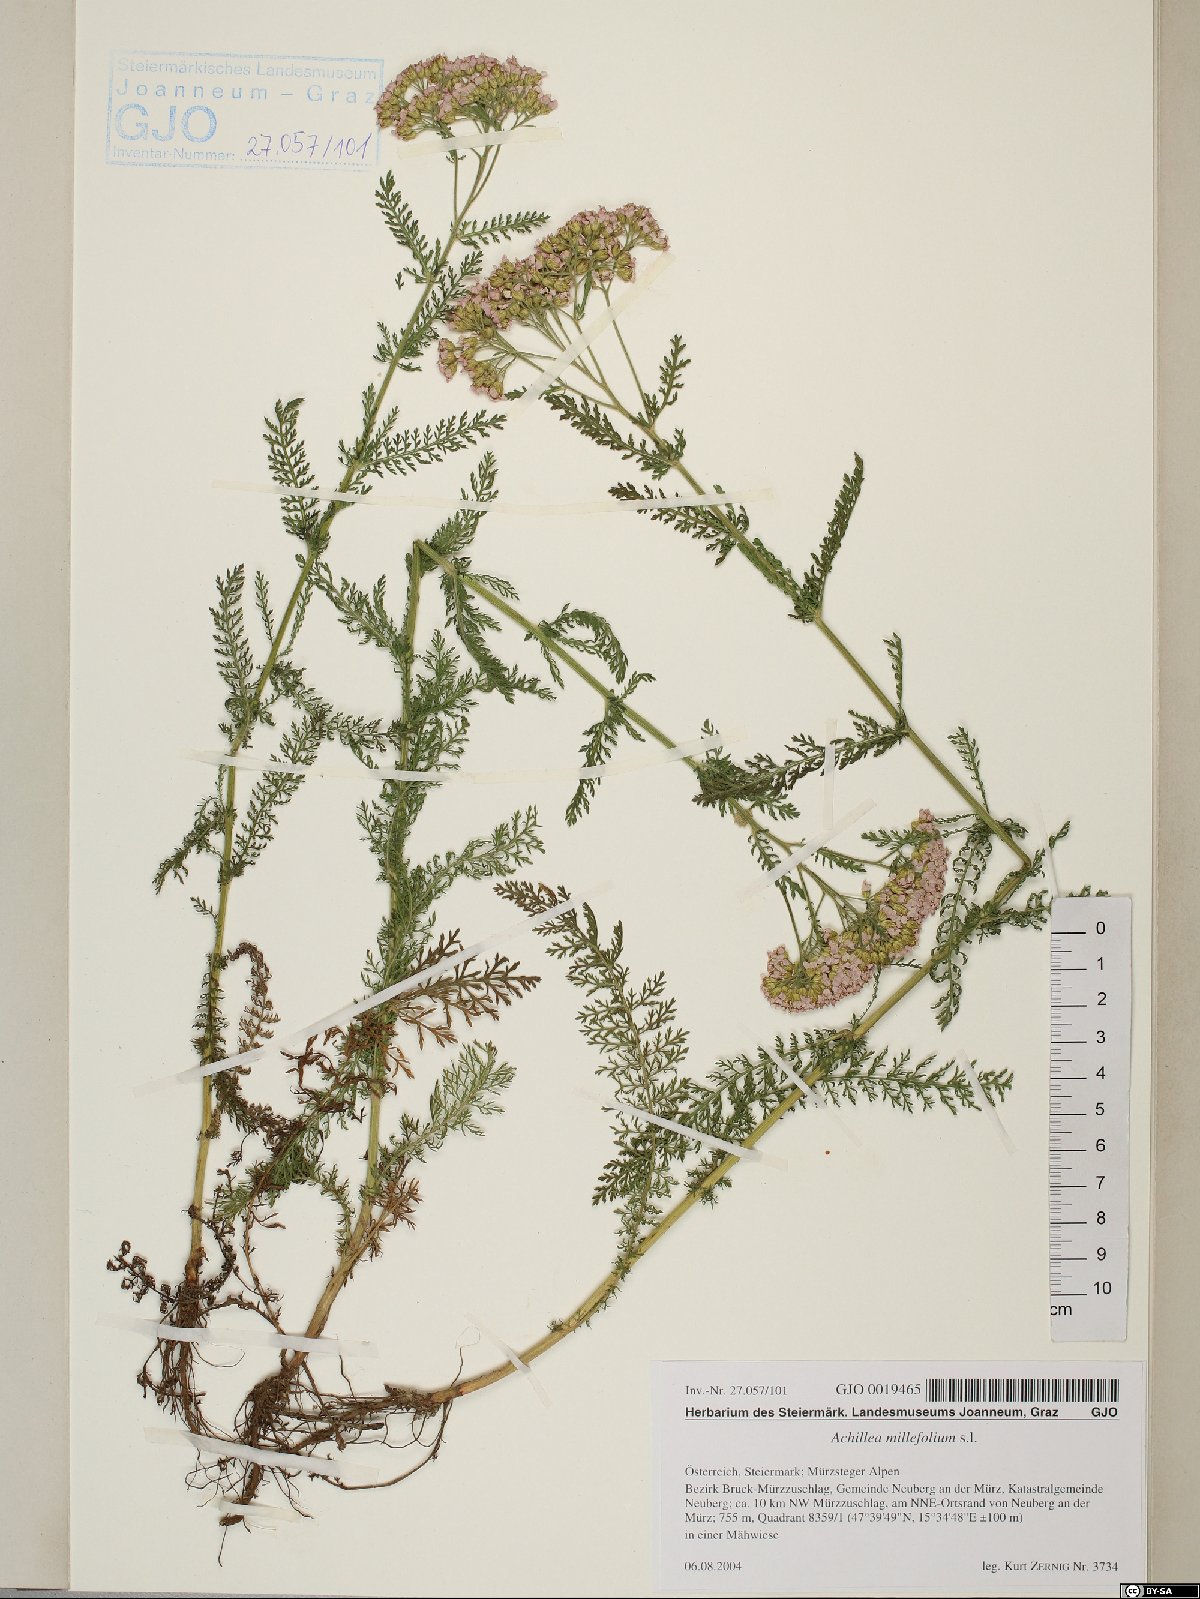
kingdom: Plantae
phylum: Tracheophyta
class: Magnoliopsida
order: Asterales
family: Asteraceae
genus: Achillea
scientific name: Achillea millefolium
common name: Yarrow
